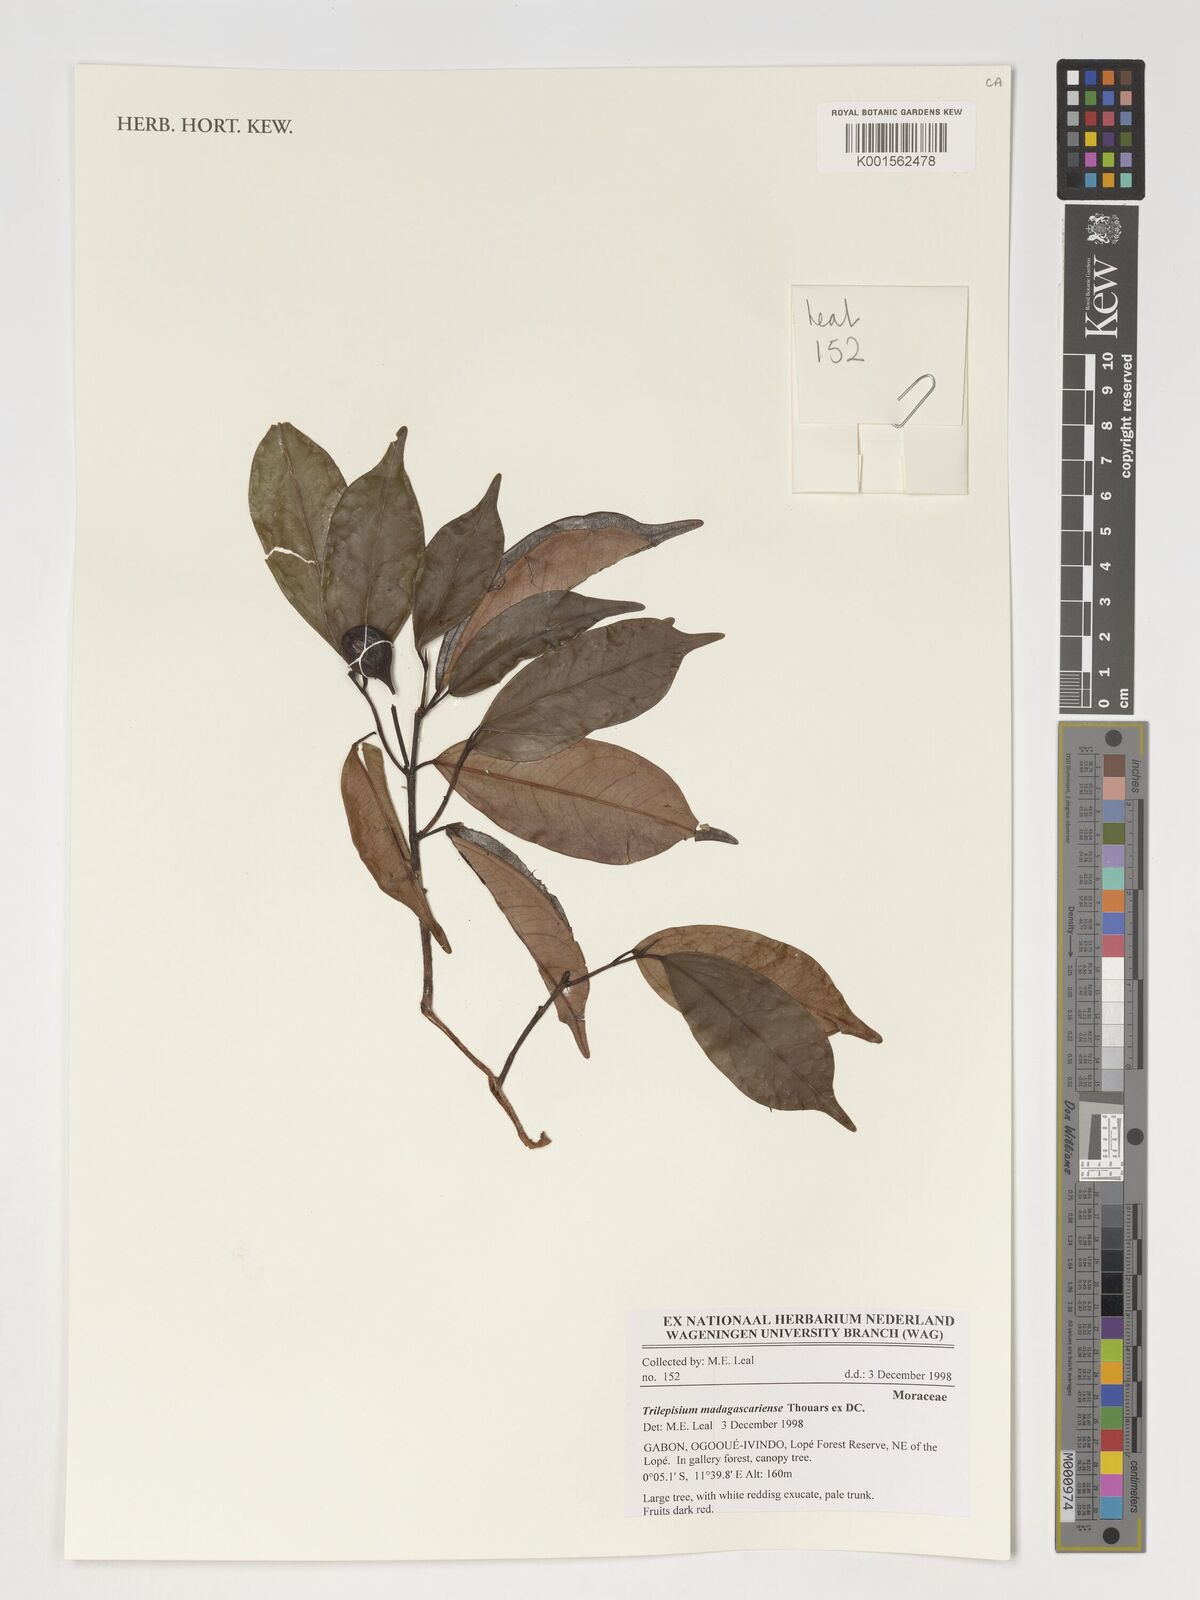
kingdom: Plantae
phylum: Tracheophyta
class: Magnoliopsida
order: Rosales
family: Moraceae
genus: Trilepisium
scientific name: Trilepisium madagascariense
